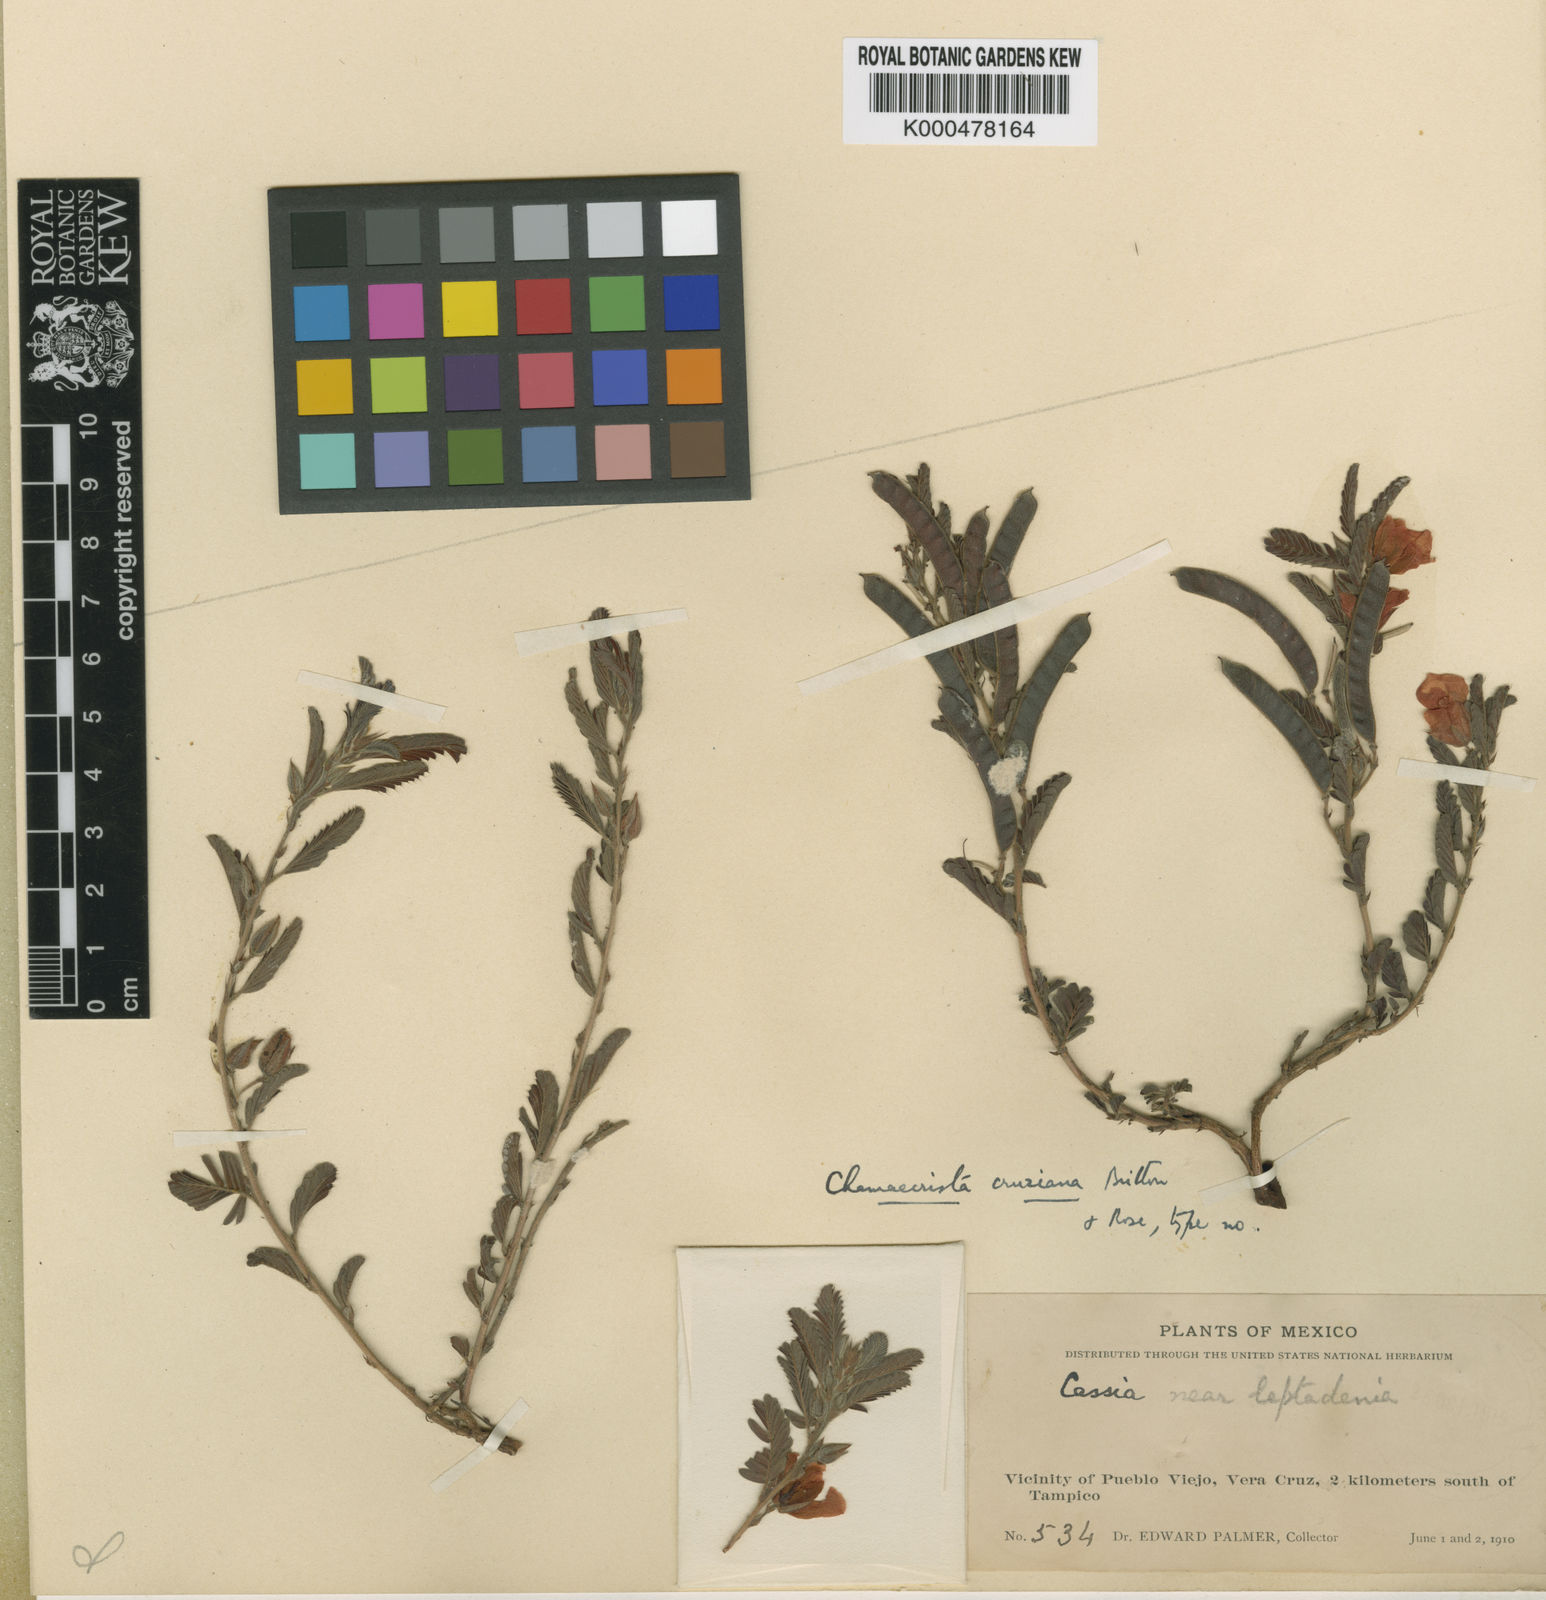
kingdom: Plantae
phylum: Tracheophyta
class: Magnoliopsida
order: Fabales
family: Fabaceae
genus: Chamaecrista
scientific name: Chamaecrista chamaecristoides
